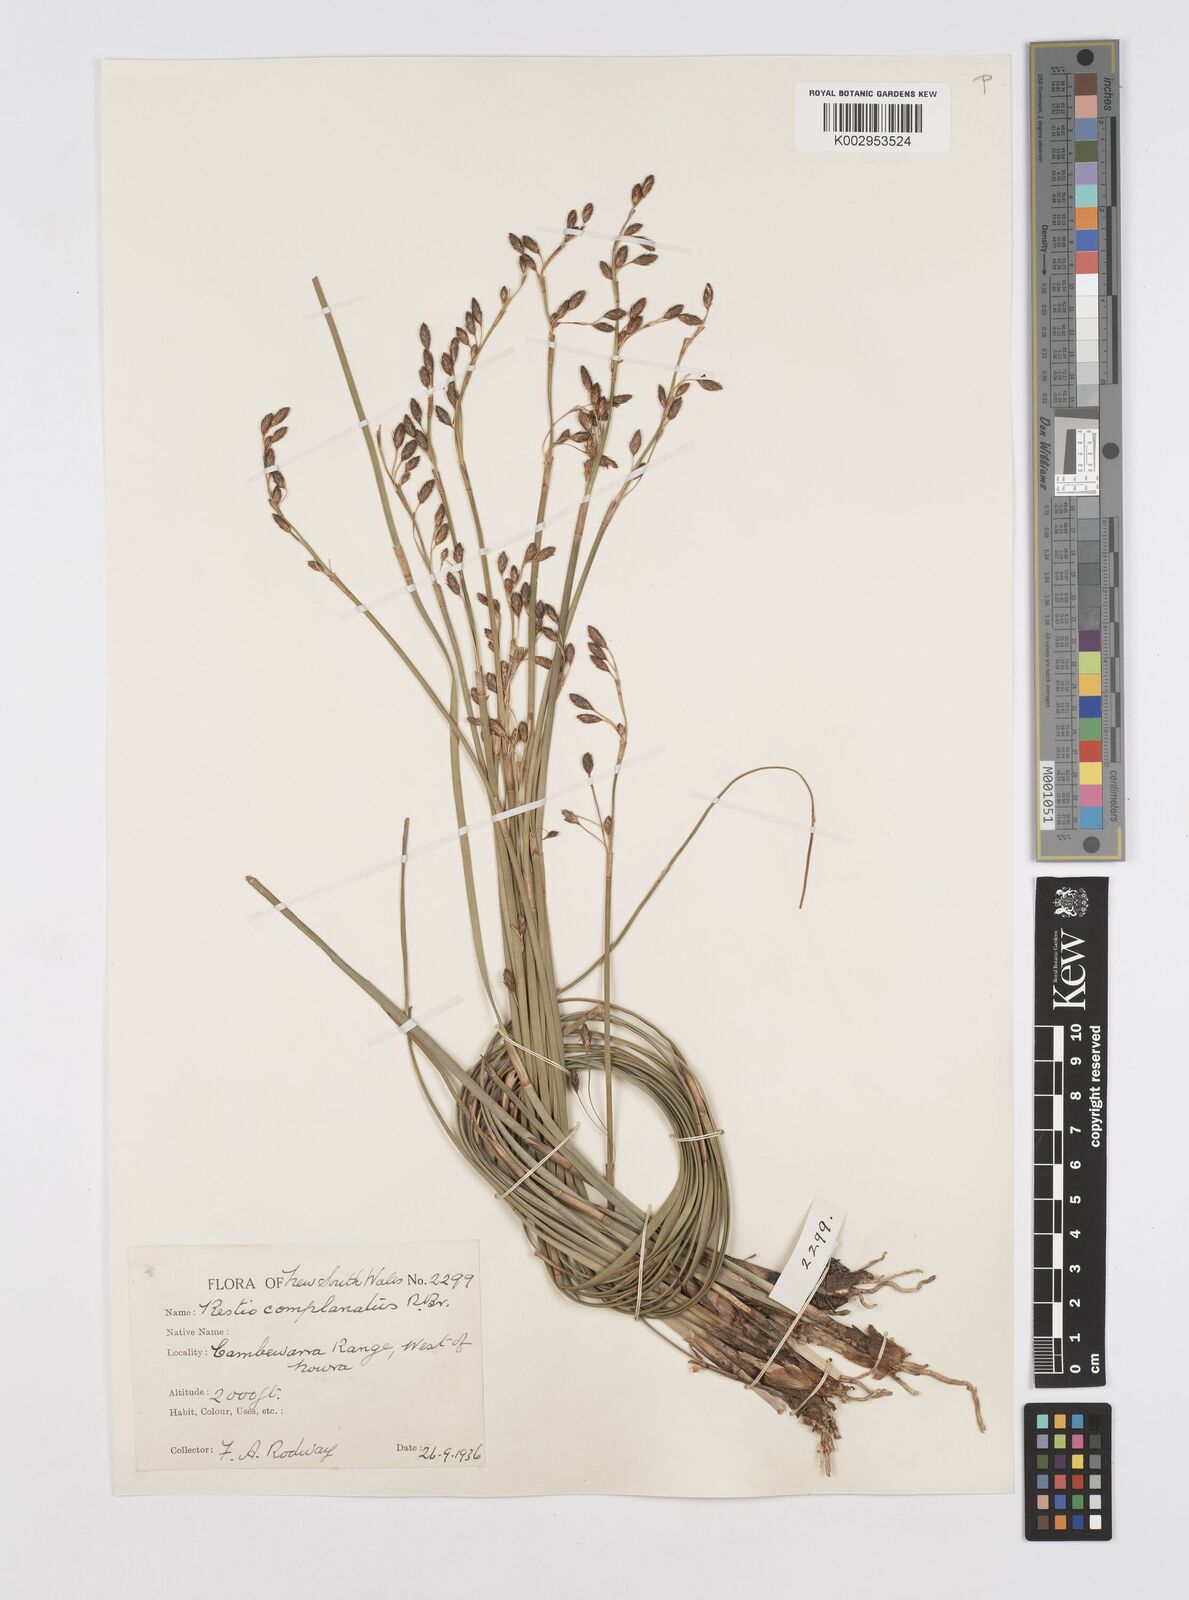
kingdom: Plantae
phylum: Tracheophyta
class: Liliopsida
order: Poales
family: Restionaceae
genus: Eurychorda
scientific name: Eurychorda complanata
